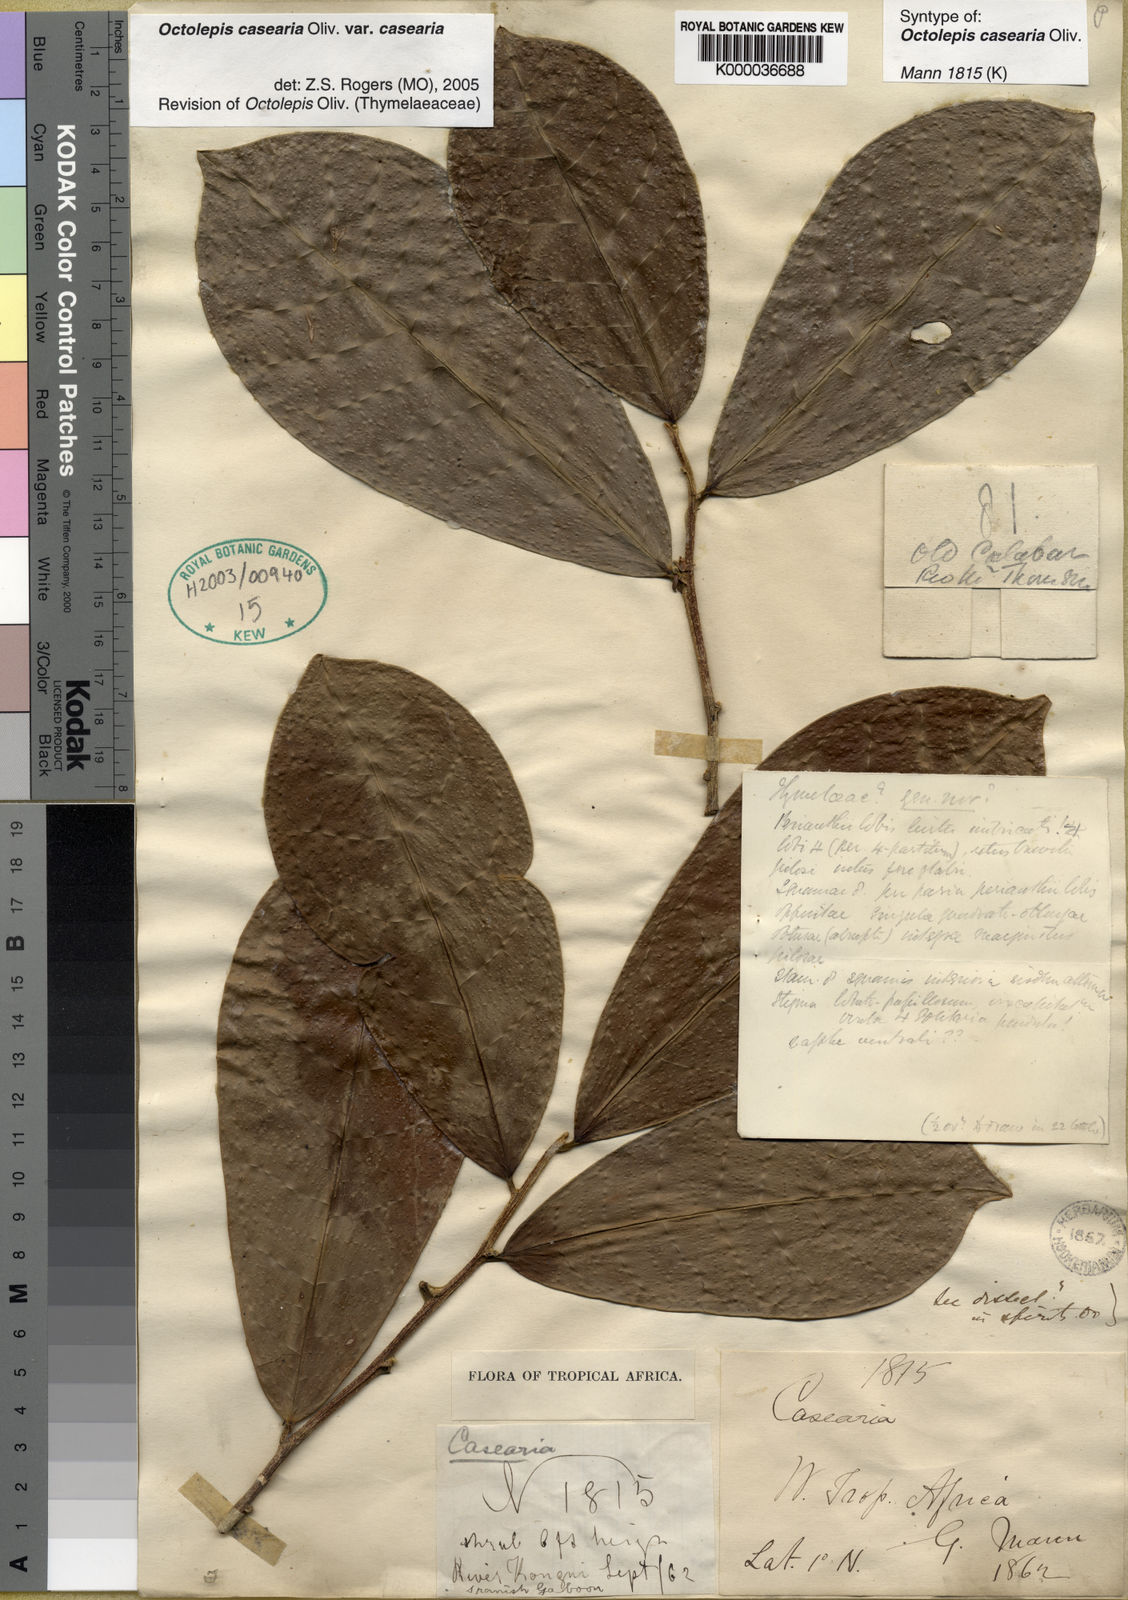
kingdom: Plantae
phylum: Tracheophyta
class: Magnoliopsida
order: Malvales
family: Thymelaeaceae
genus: Octolepis
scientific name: Octolepis casearia
